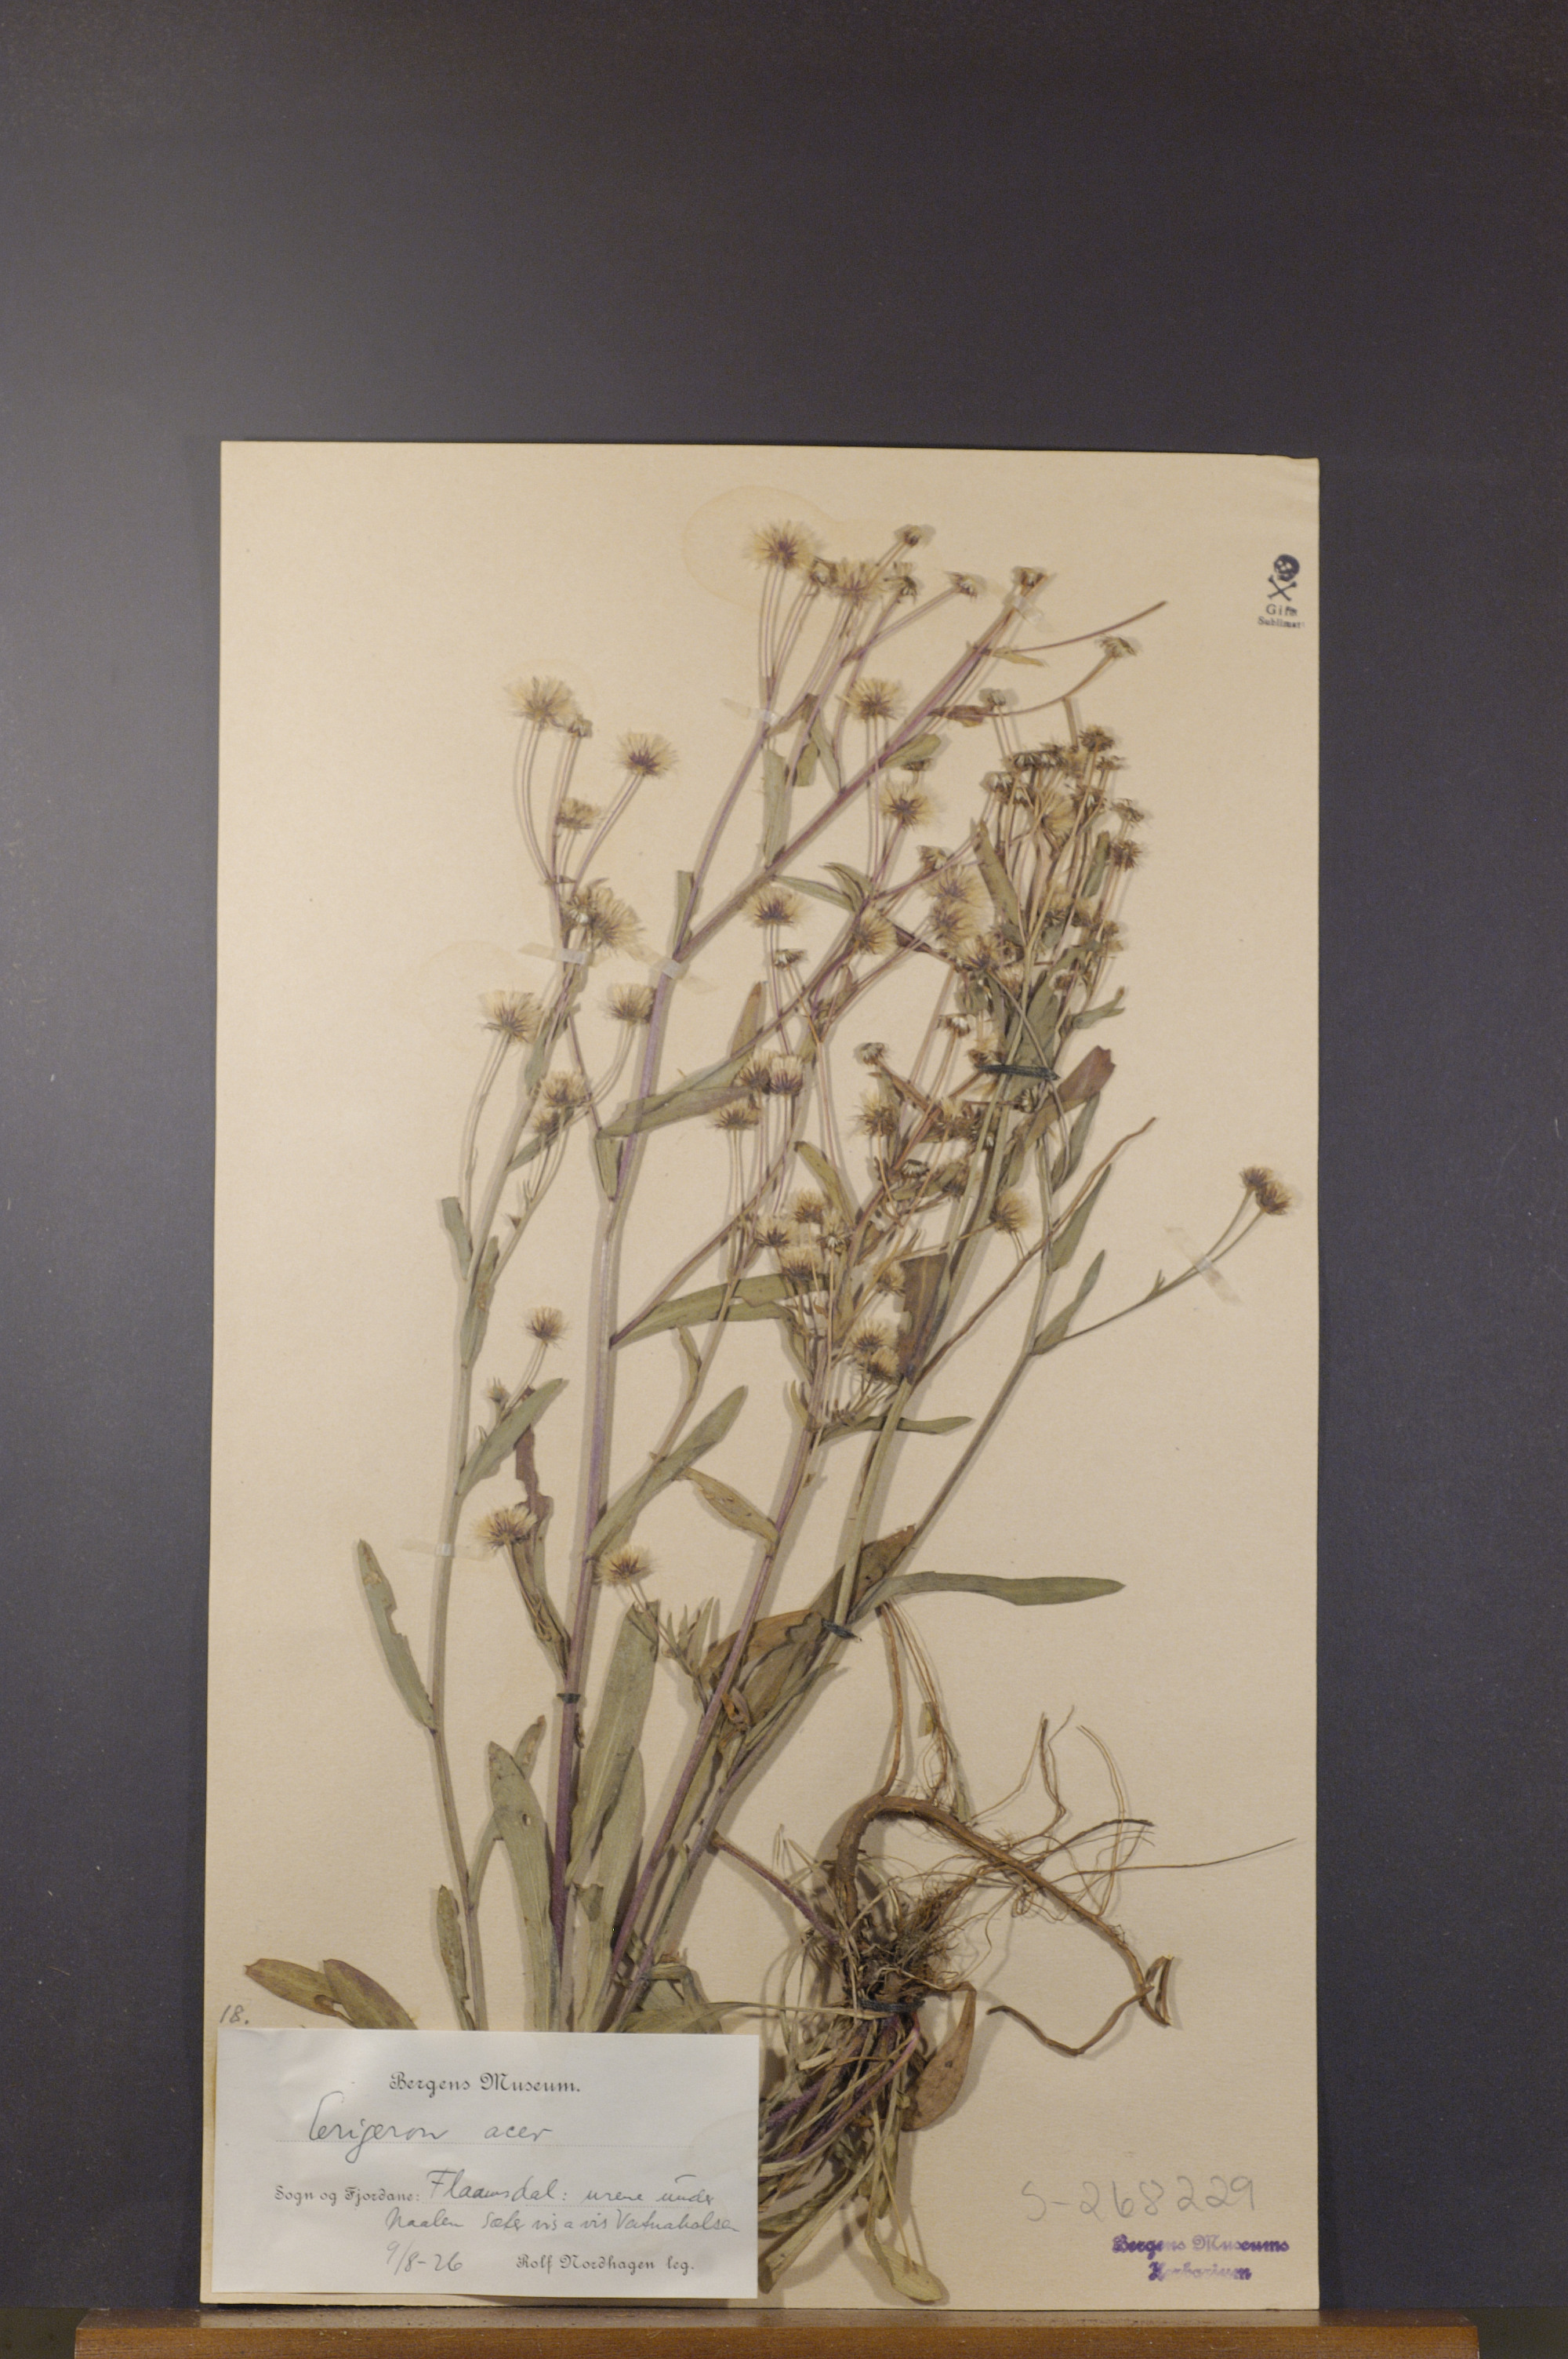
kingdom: Plantae
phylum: Tracheophyta
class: Magnoliopsida
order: Asterales
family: Asteraceae
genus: Erigeron
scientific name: Erigeron acris
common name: Blue fleabane
